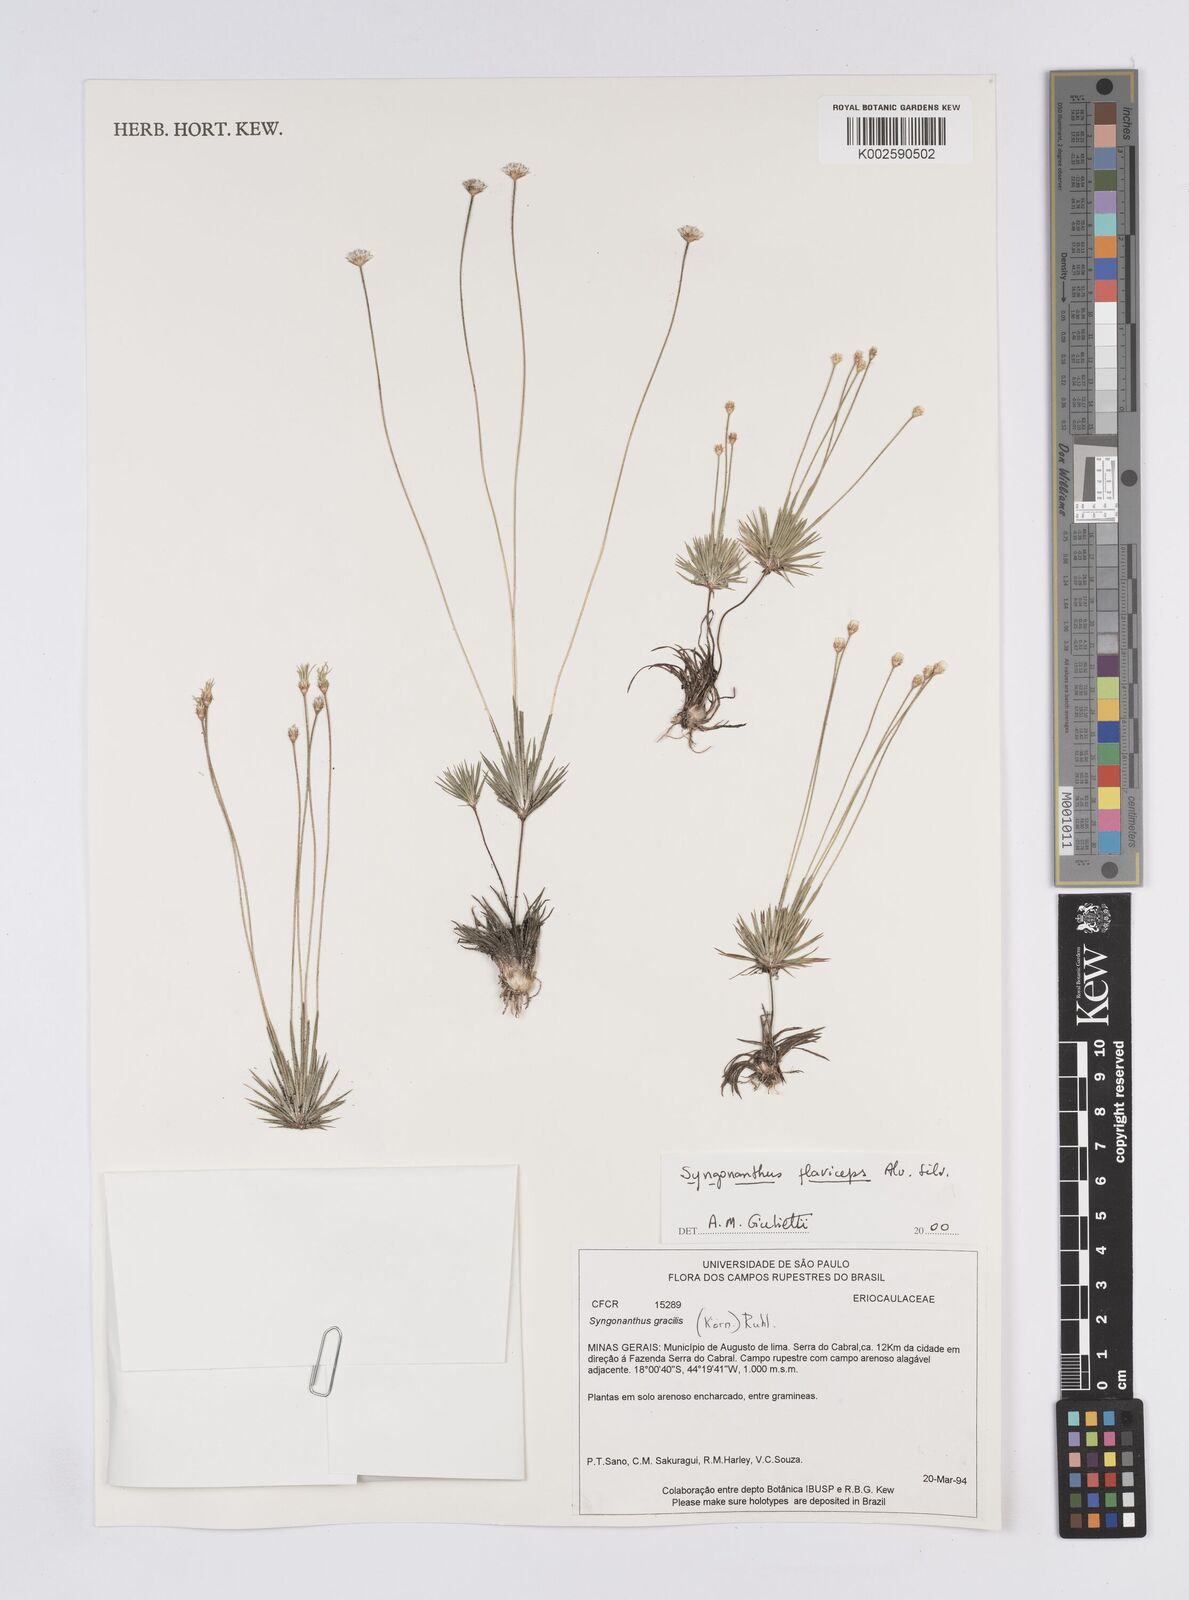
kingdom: Plantae
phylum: Tracheophyta
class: Liliopsida
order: Poales
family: Eriocaulaceae
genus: Syngonanthus
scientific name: Syngonanthus flaviceps
